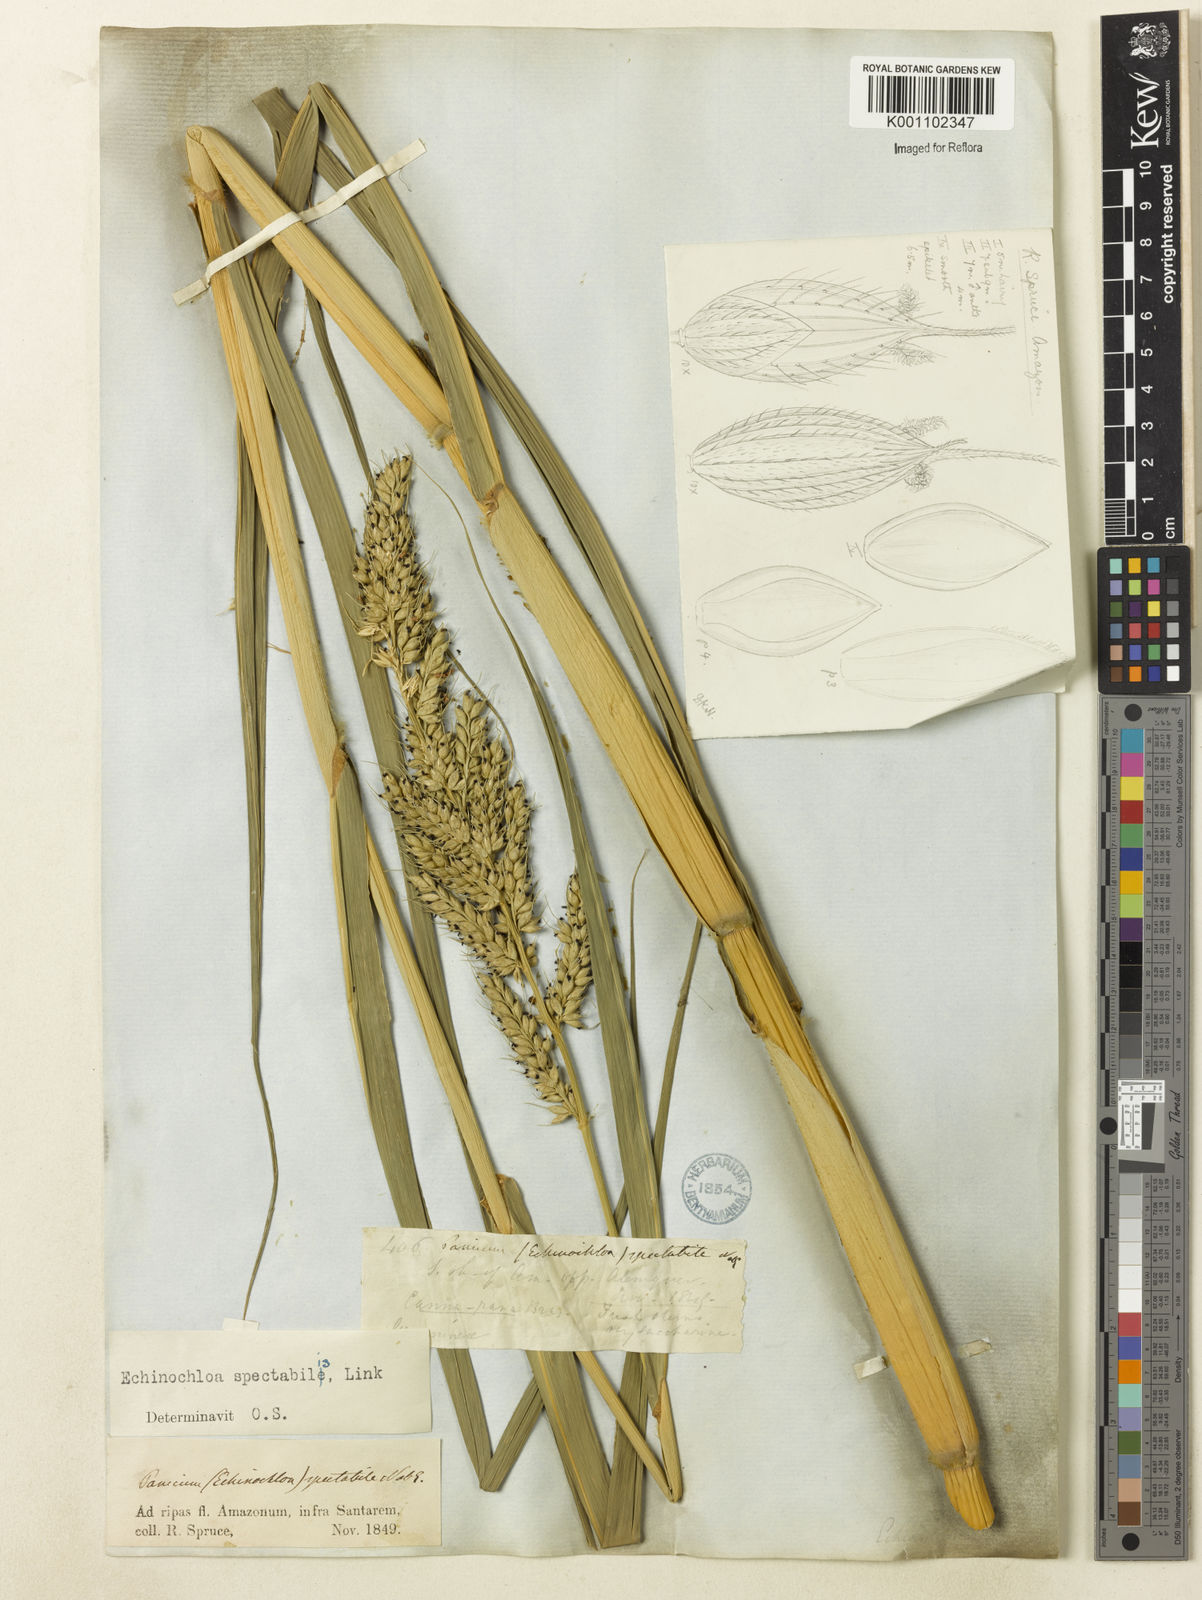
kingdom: Plantae
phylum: Tracheophyta
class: Liliopsida
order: Poales
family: Poaceae
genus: Echinochloa
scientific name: Echinochloa polystachya
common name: Creeping river grass
